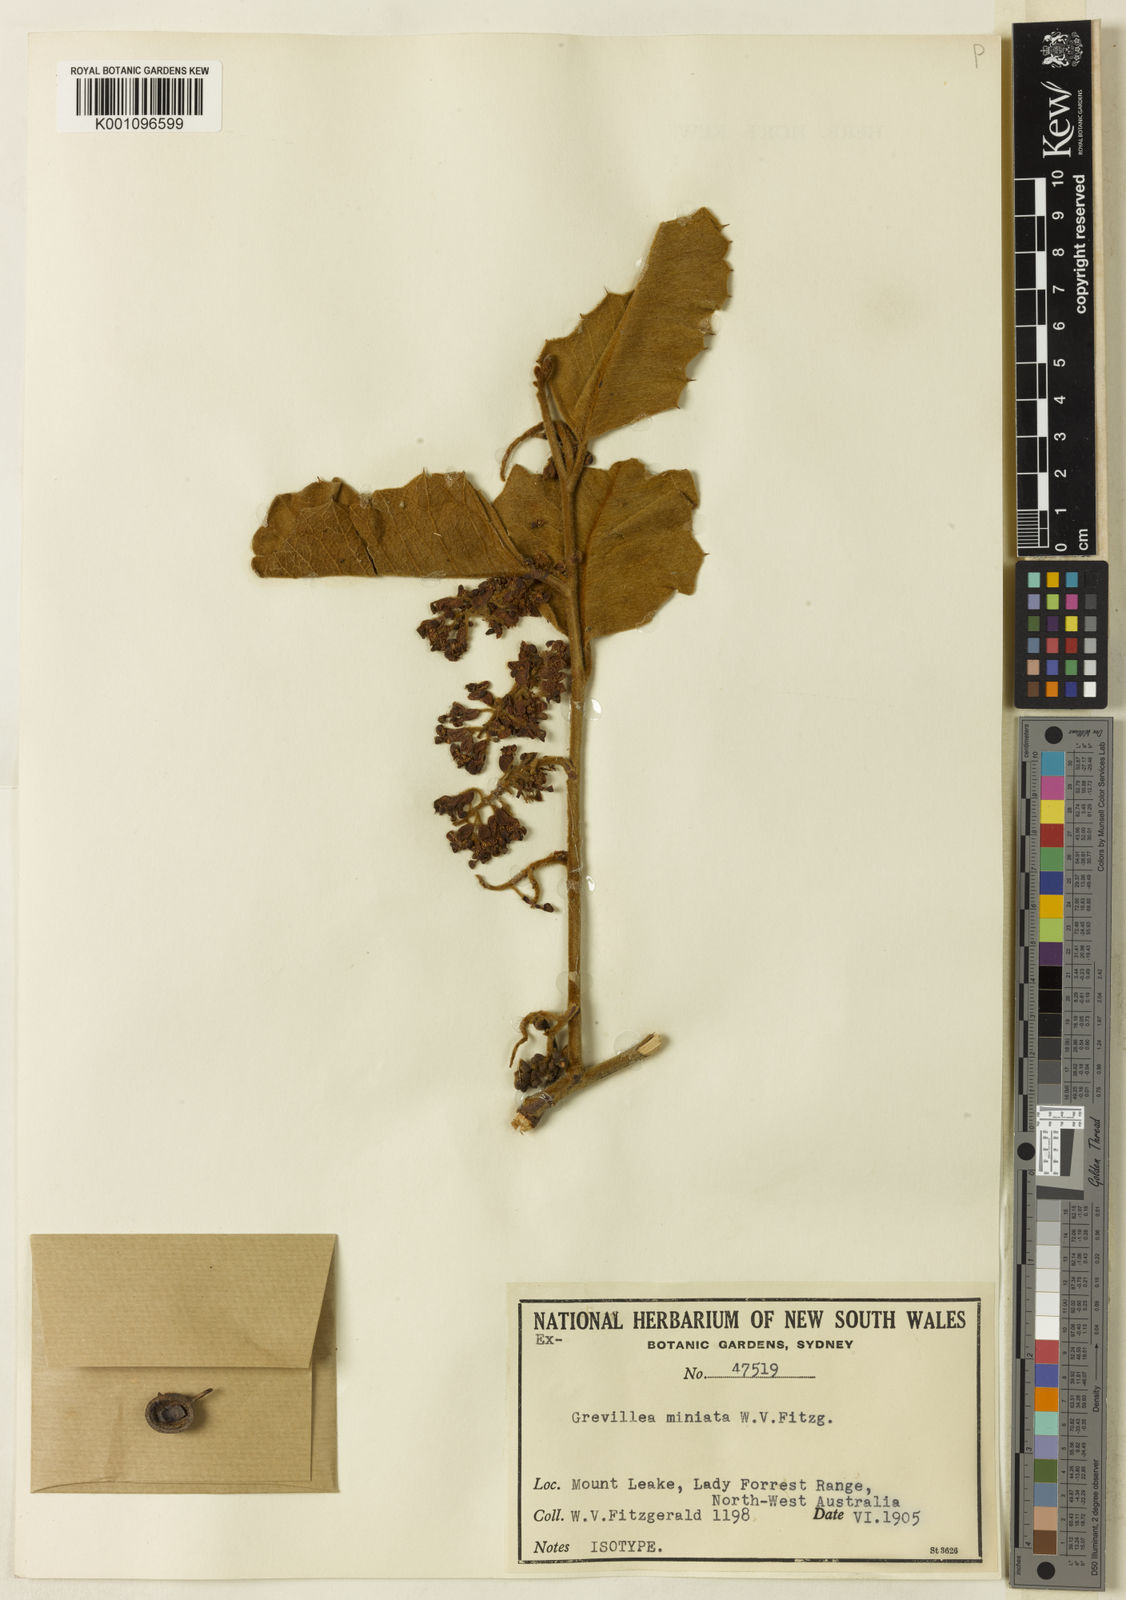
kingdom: Plantae
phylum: Tracheophyta
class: Magnoliopsida
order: Proteales
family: Proteaceae
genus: Grevillea
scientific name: Grevillea miniata
